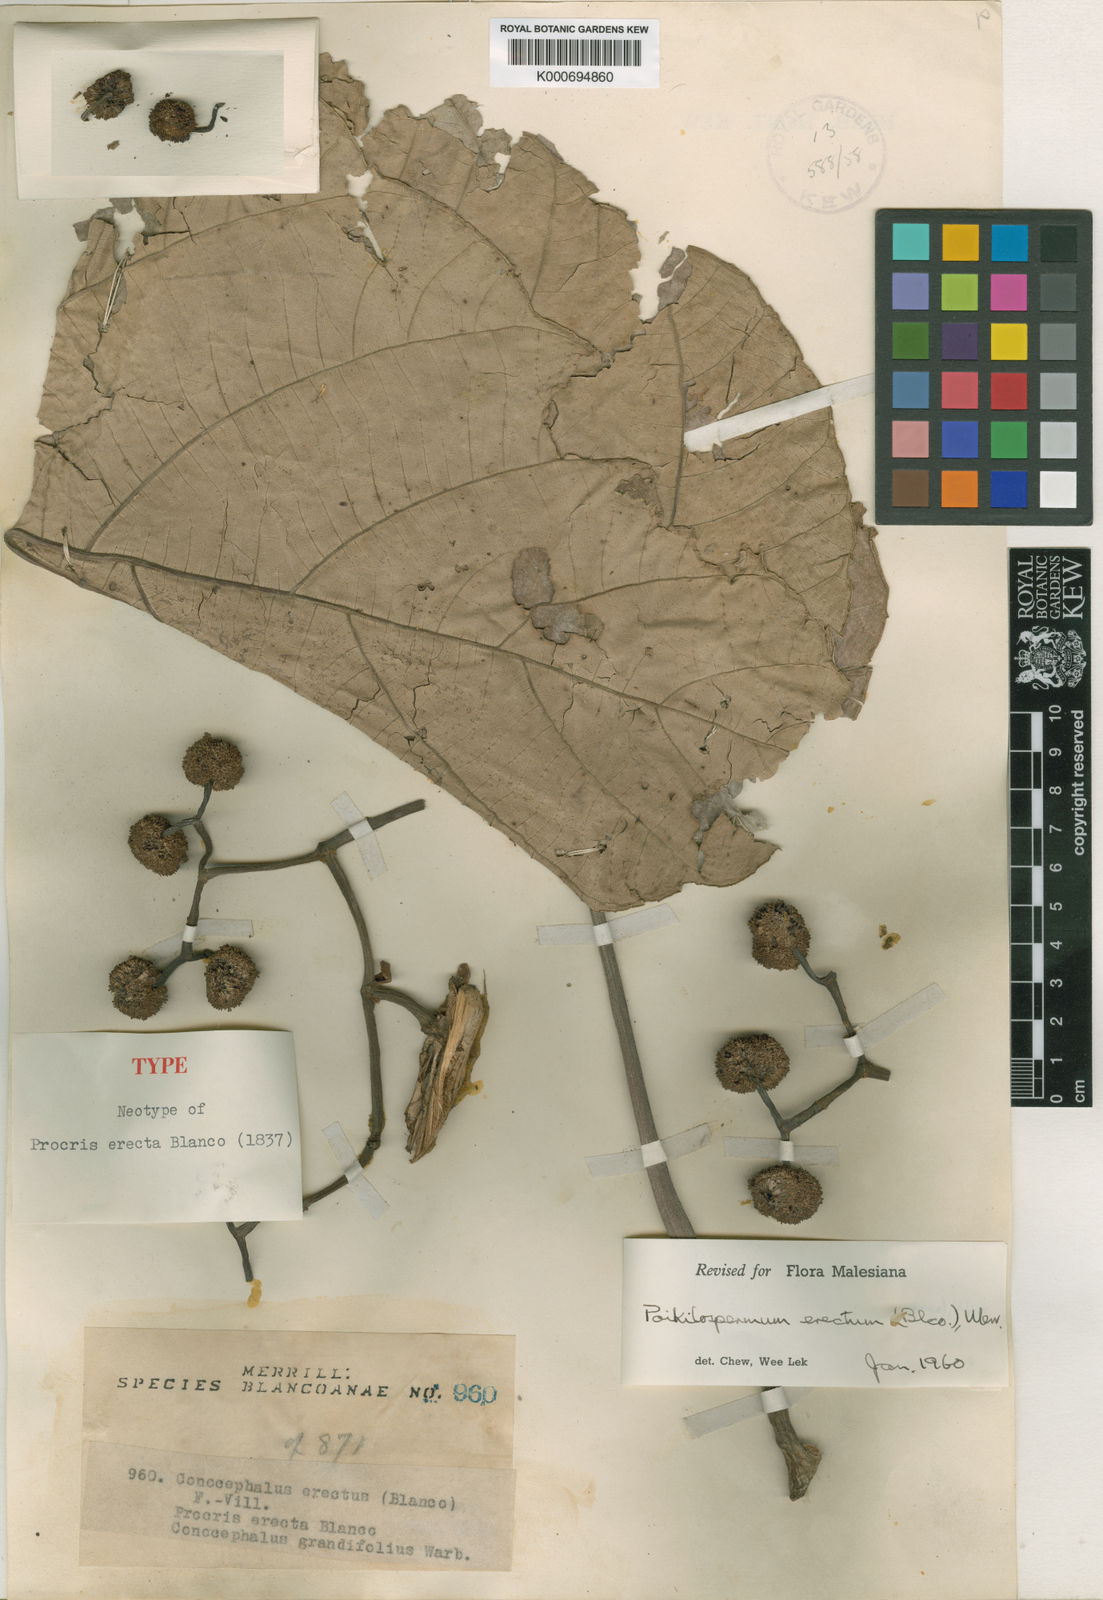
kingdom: Plantae
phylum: Tracheophyta
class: Magnoliopsida
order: Rosales
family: Urticaceae
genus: Poikilospermum
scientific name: Poikilospermum erectum
